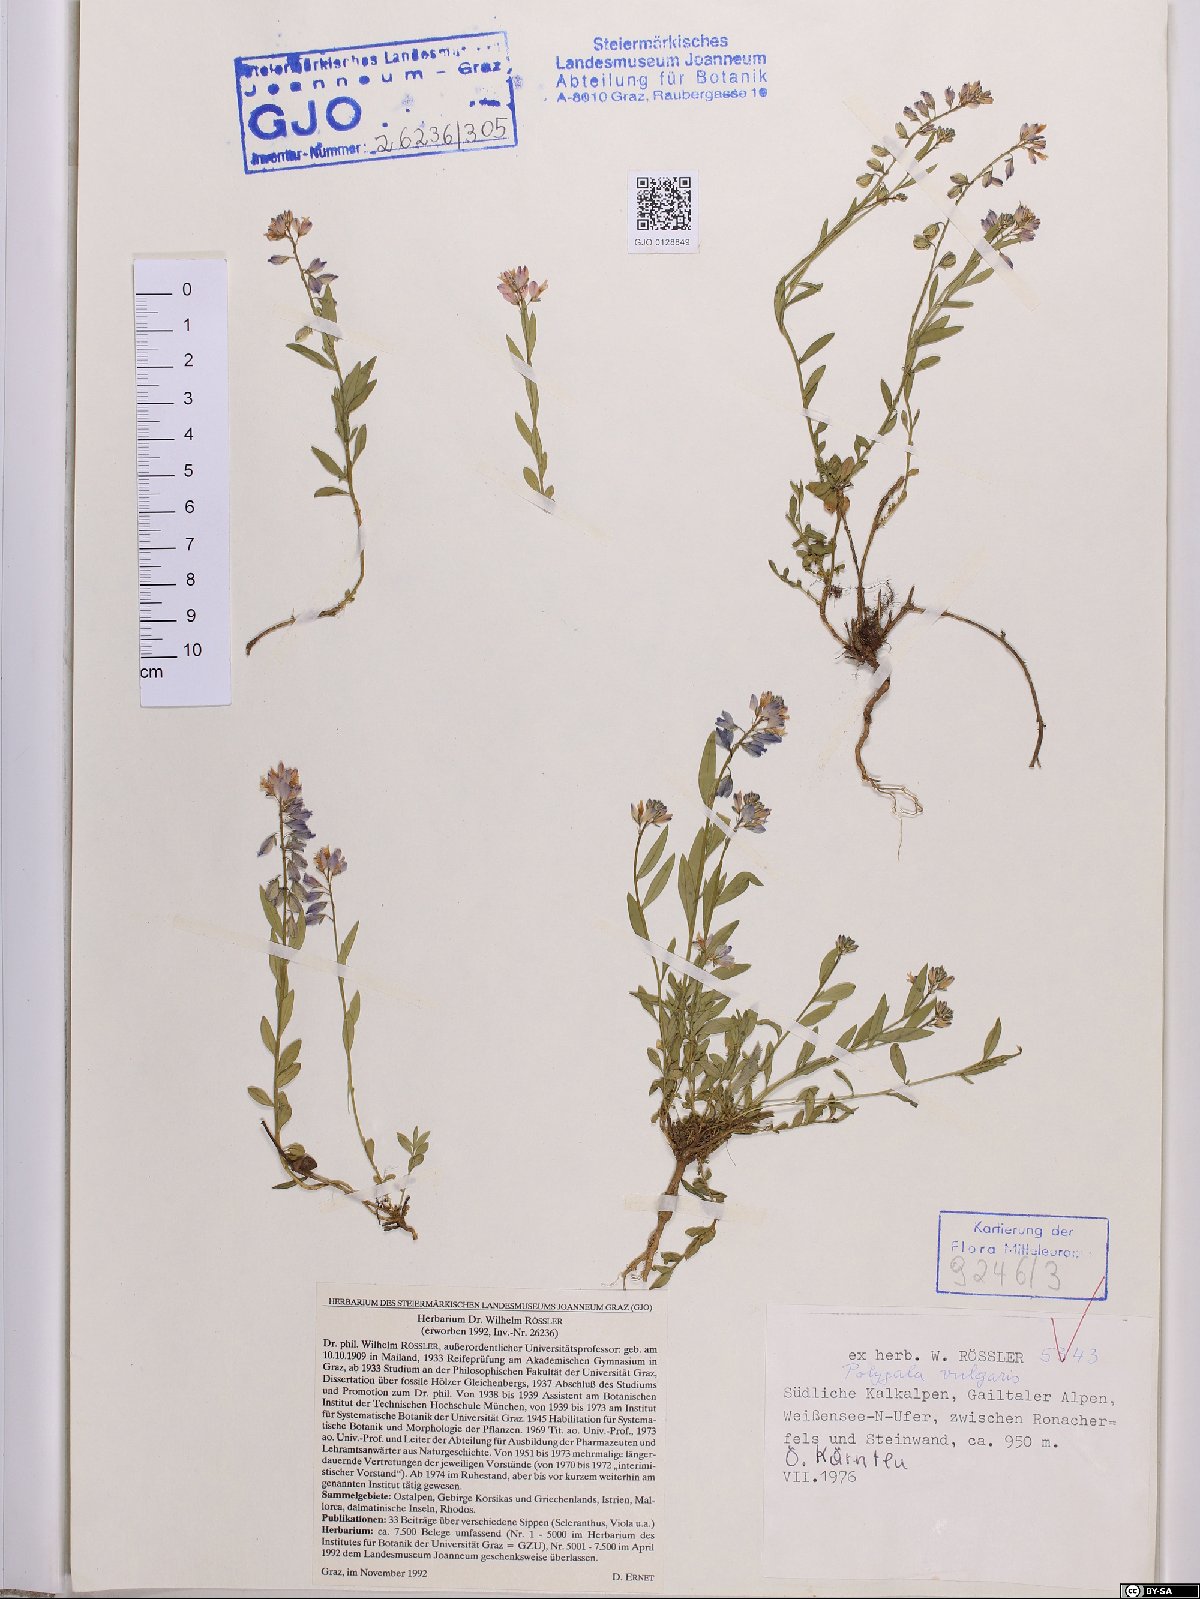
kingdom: Plantae
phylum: Tracheophyta
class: Magnoliopsida
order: Fabales
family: Polygalaceae
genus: Polygala
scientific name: Polygala vulgaris
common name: Common milkwort
